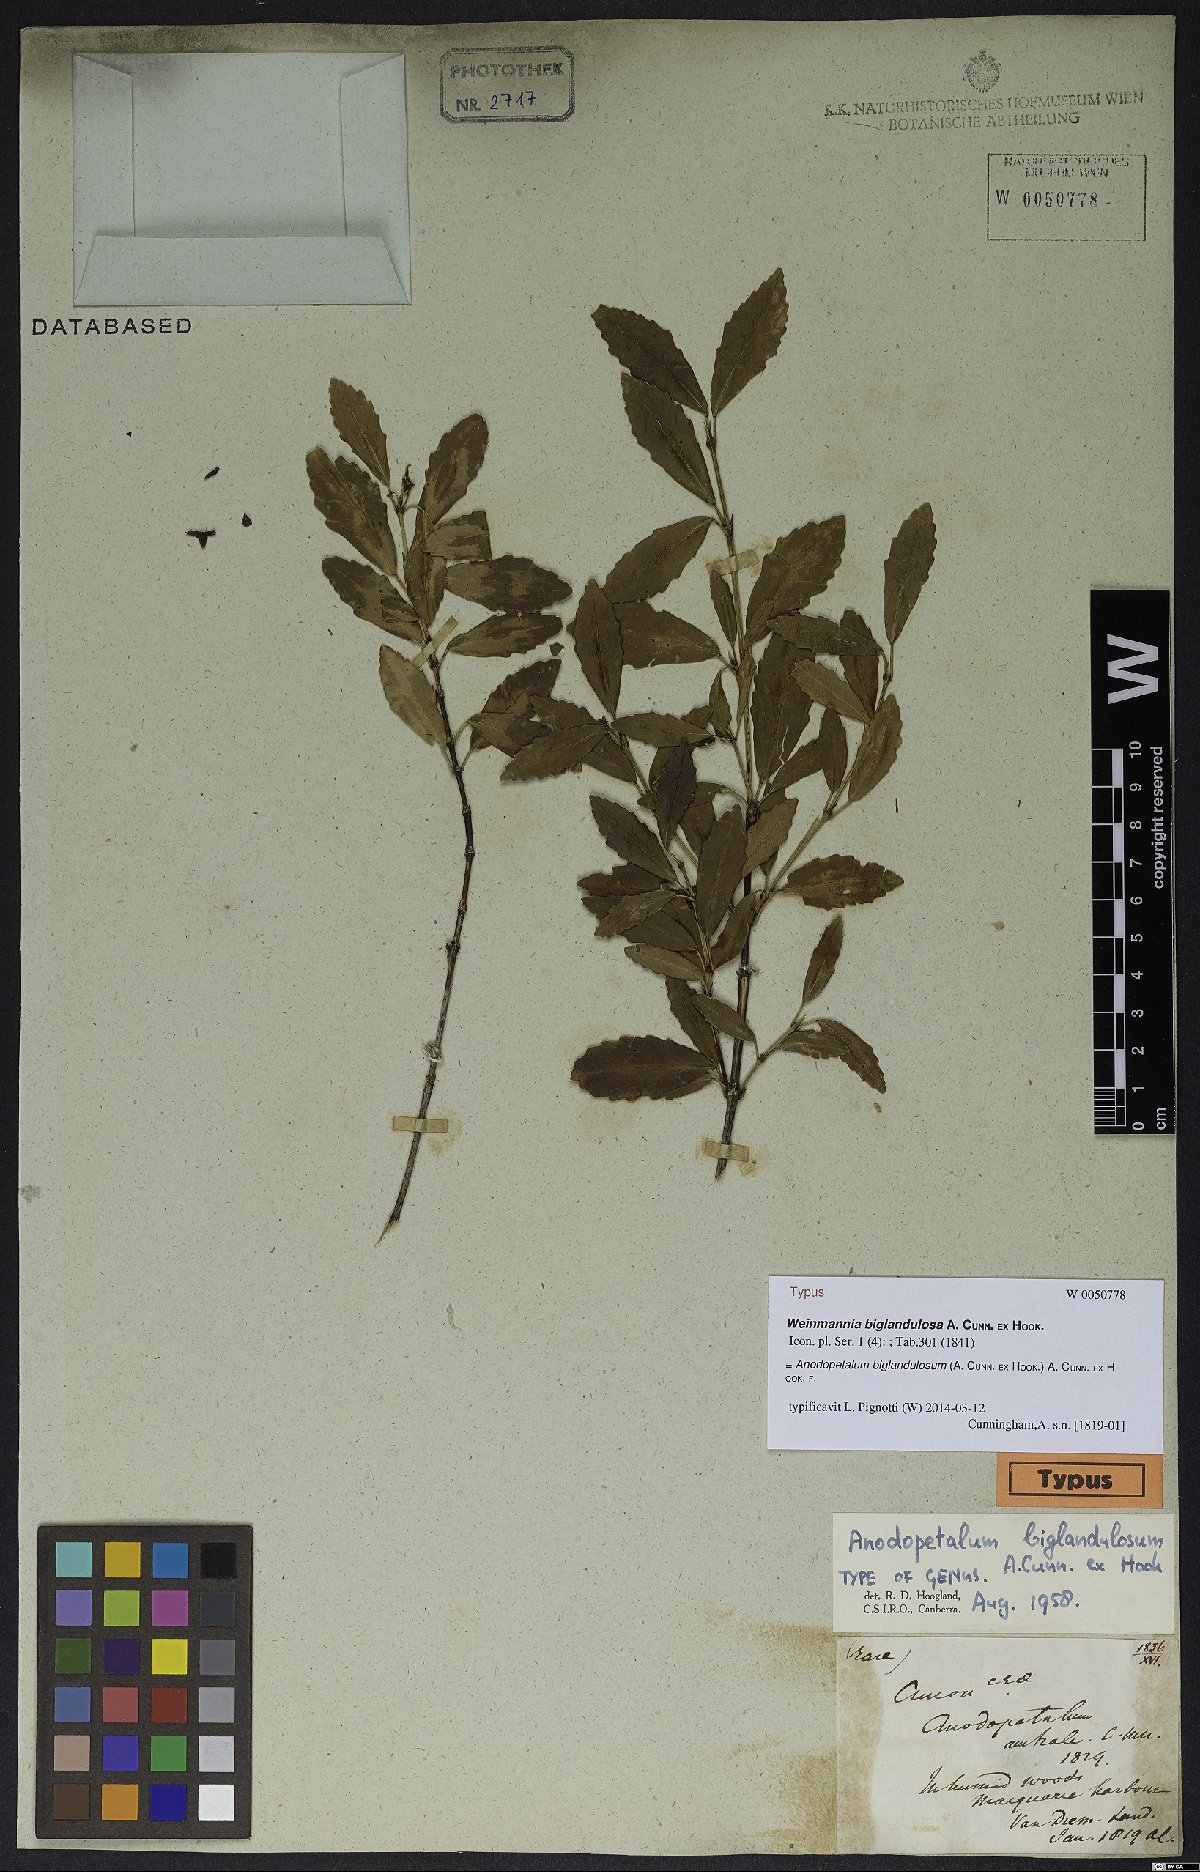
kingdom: Plantae
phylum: Tracheophyta
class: Magnoliopsida
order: Oxalidales
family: Cunoniaceae
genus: Anodopetalum
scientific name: Anodopetalum biglandulosum
